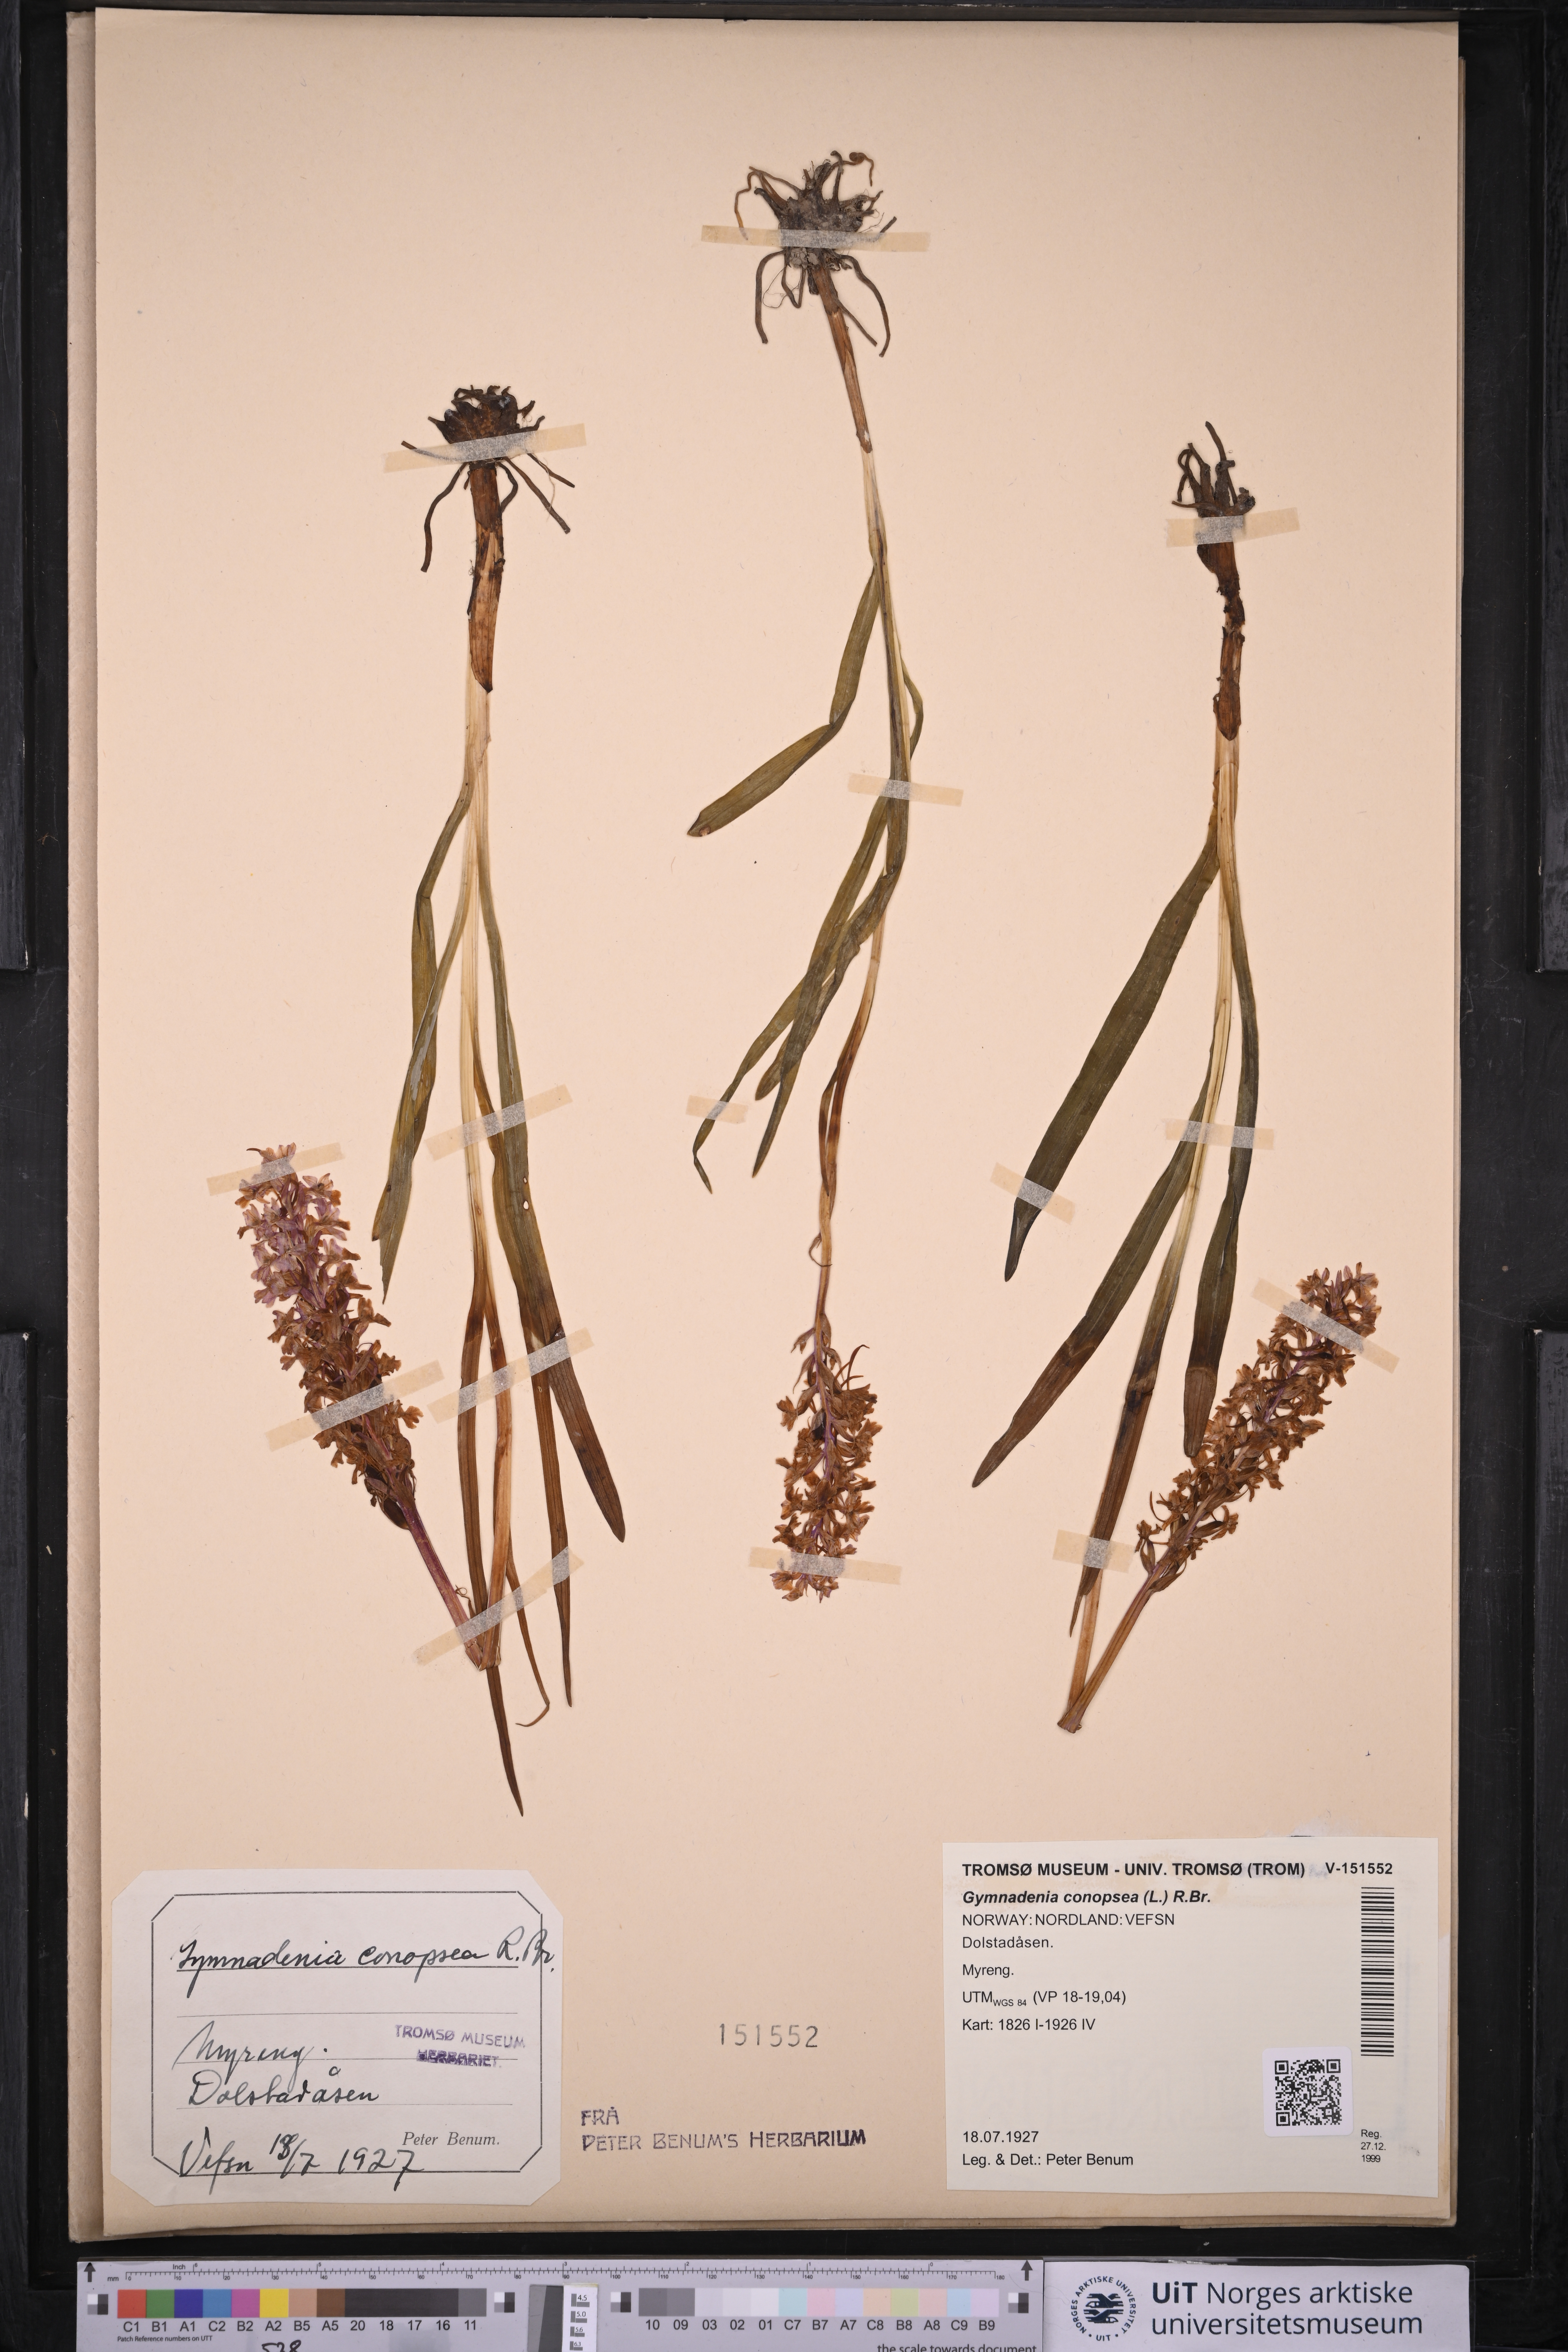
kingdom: Plantae
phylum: Tracheophyta
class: Liliopsida
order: Asparagales
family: Orchidaceae
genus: Gymnadenia
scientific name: Gymnadenia conopsea
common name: Fragrant orchid
